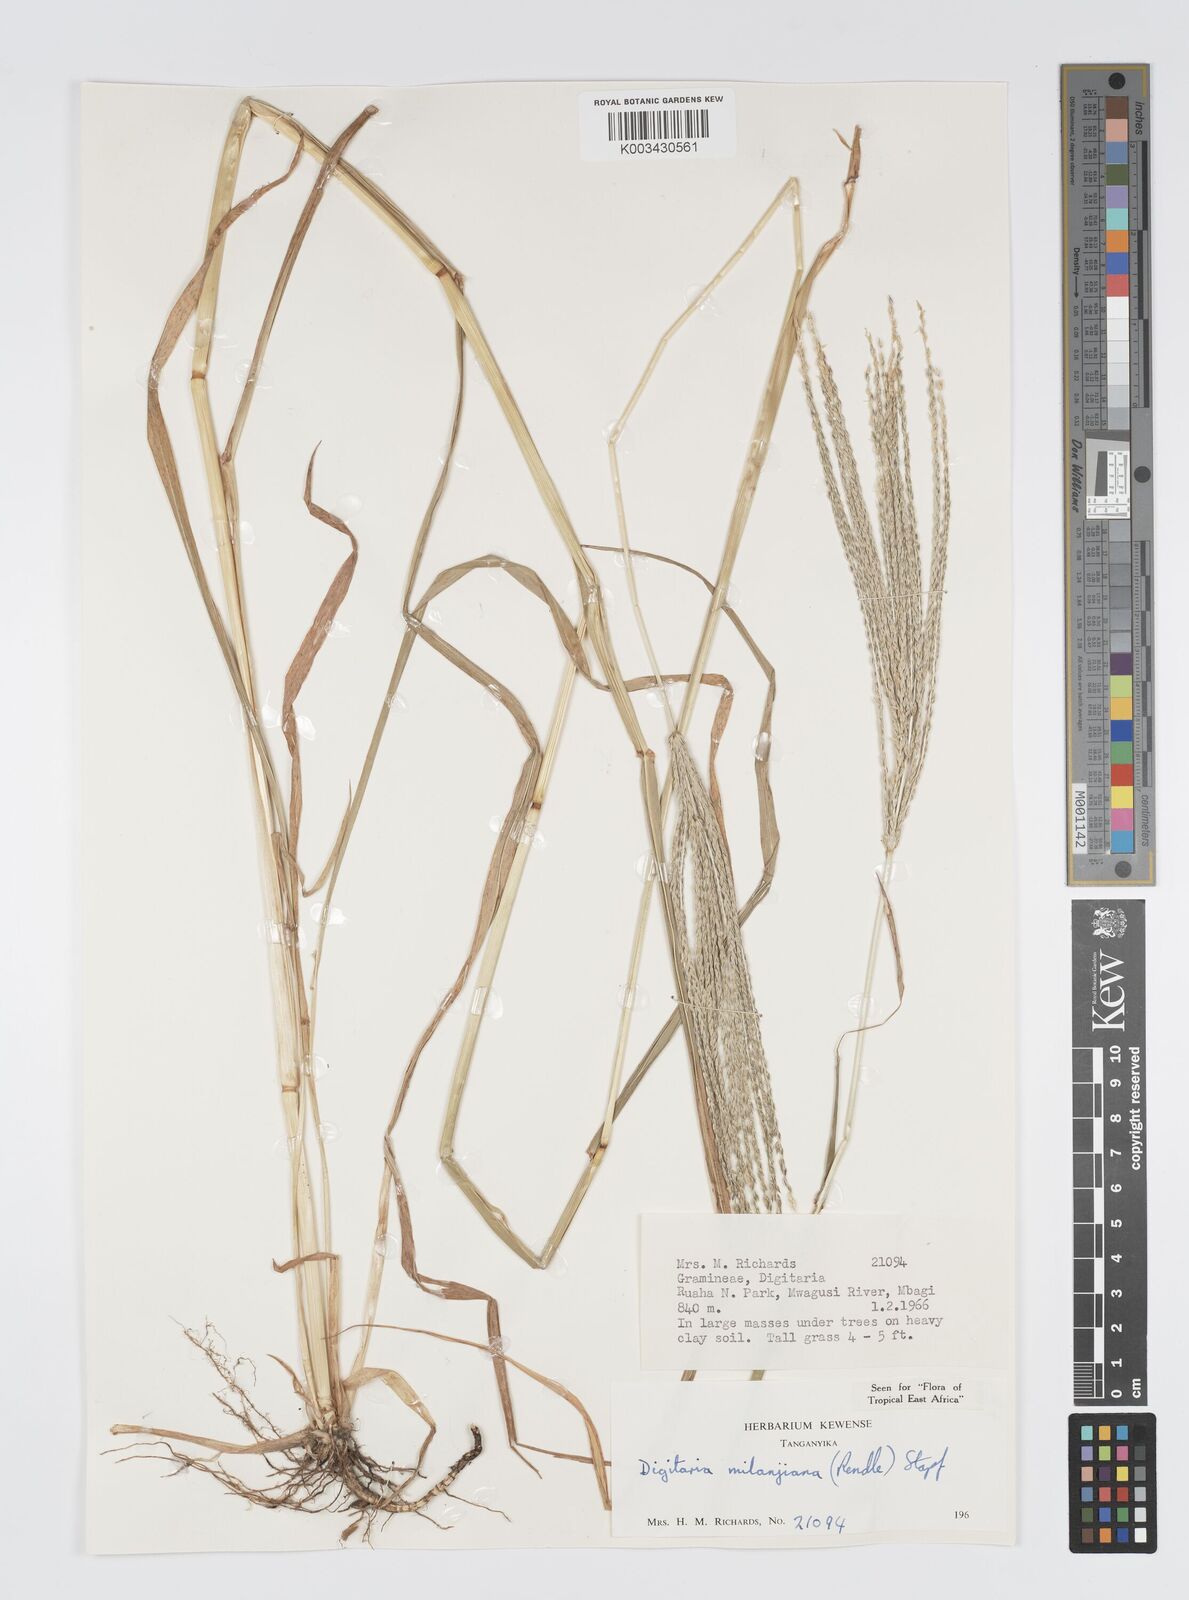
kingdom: Plantae
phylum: Tracheophyta
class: Liliopsida
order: Poales
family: Poaceae
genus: Digitaria
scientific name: Digitaria milanjiana
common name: Madagascar crabgrass
